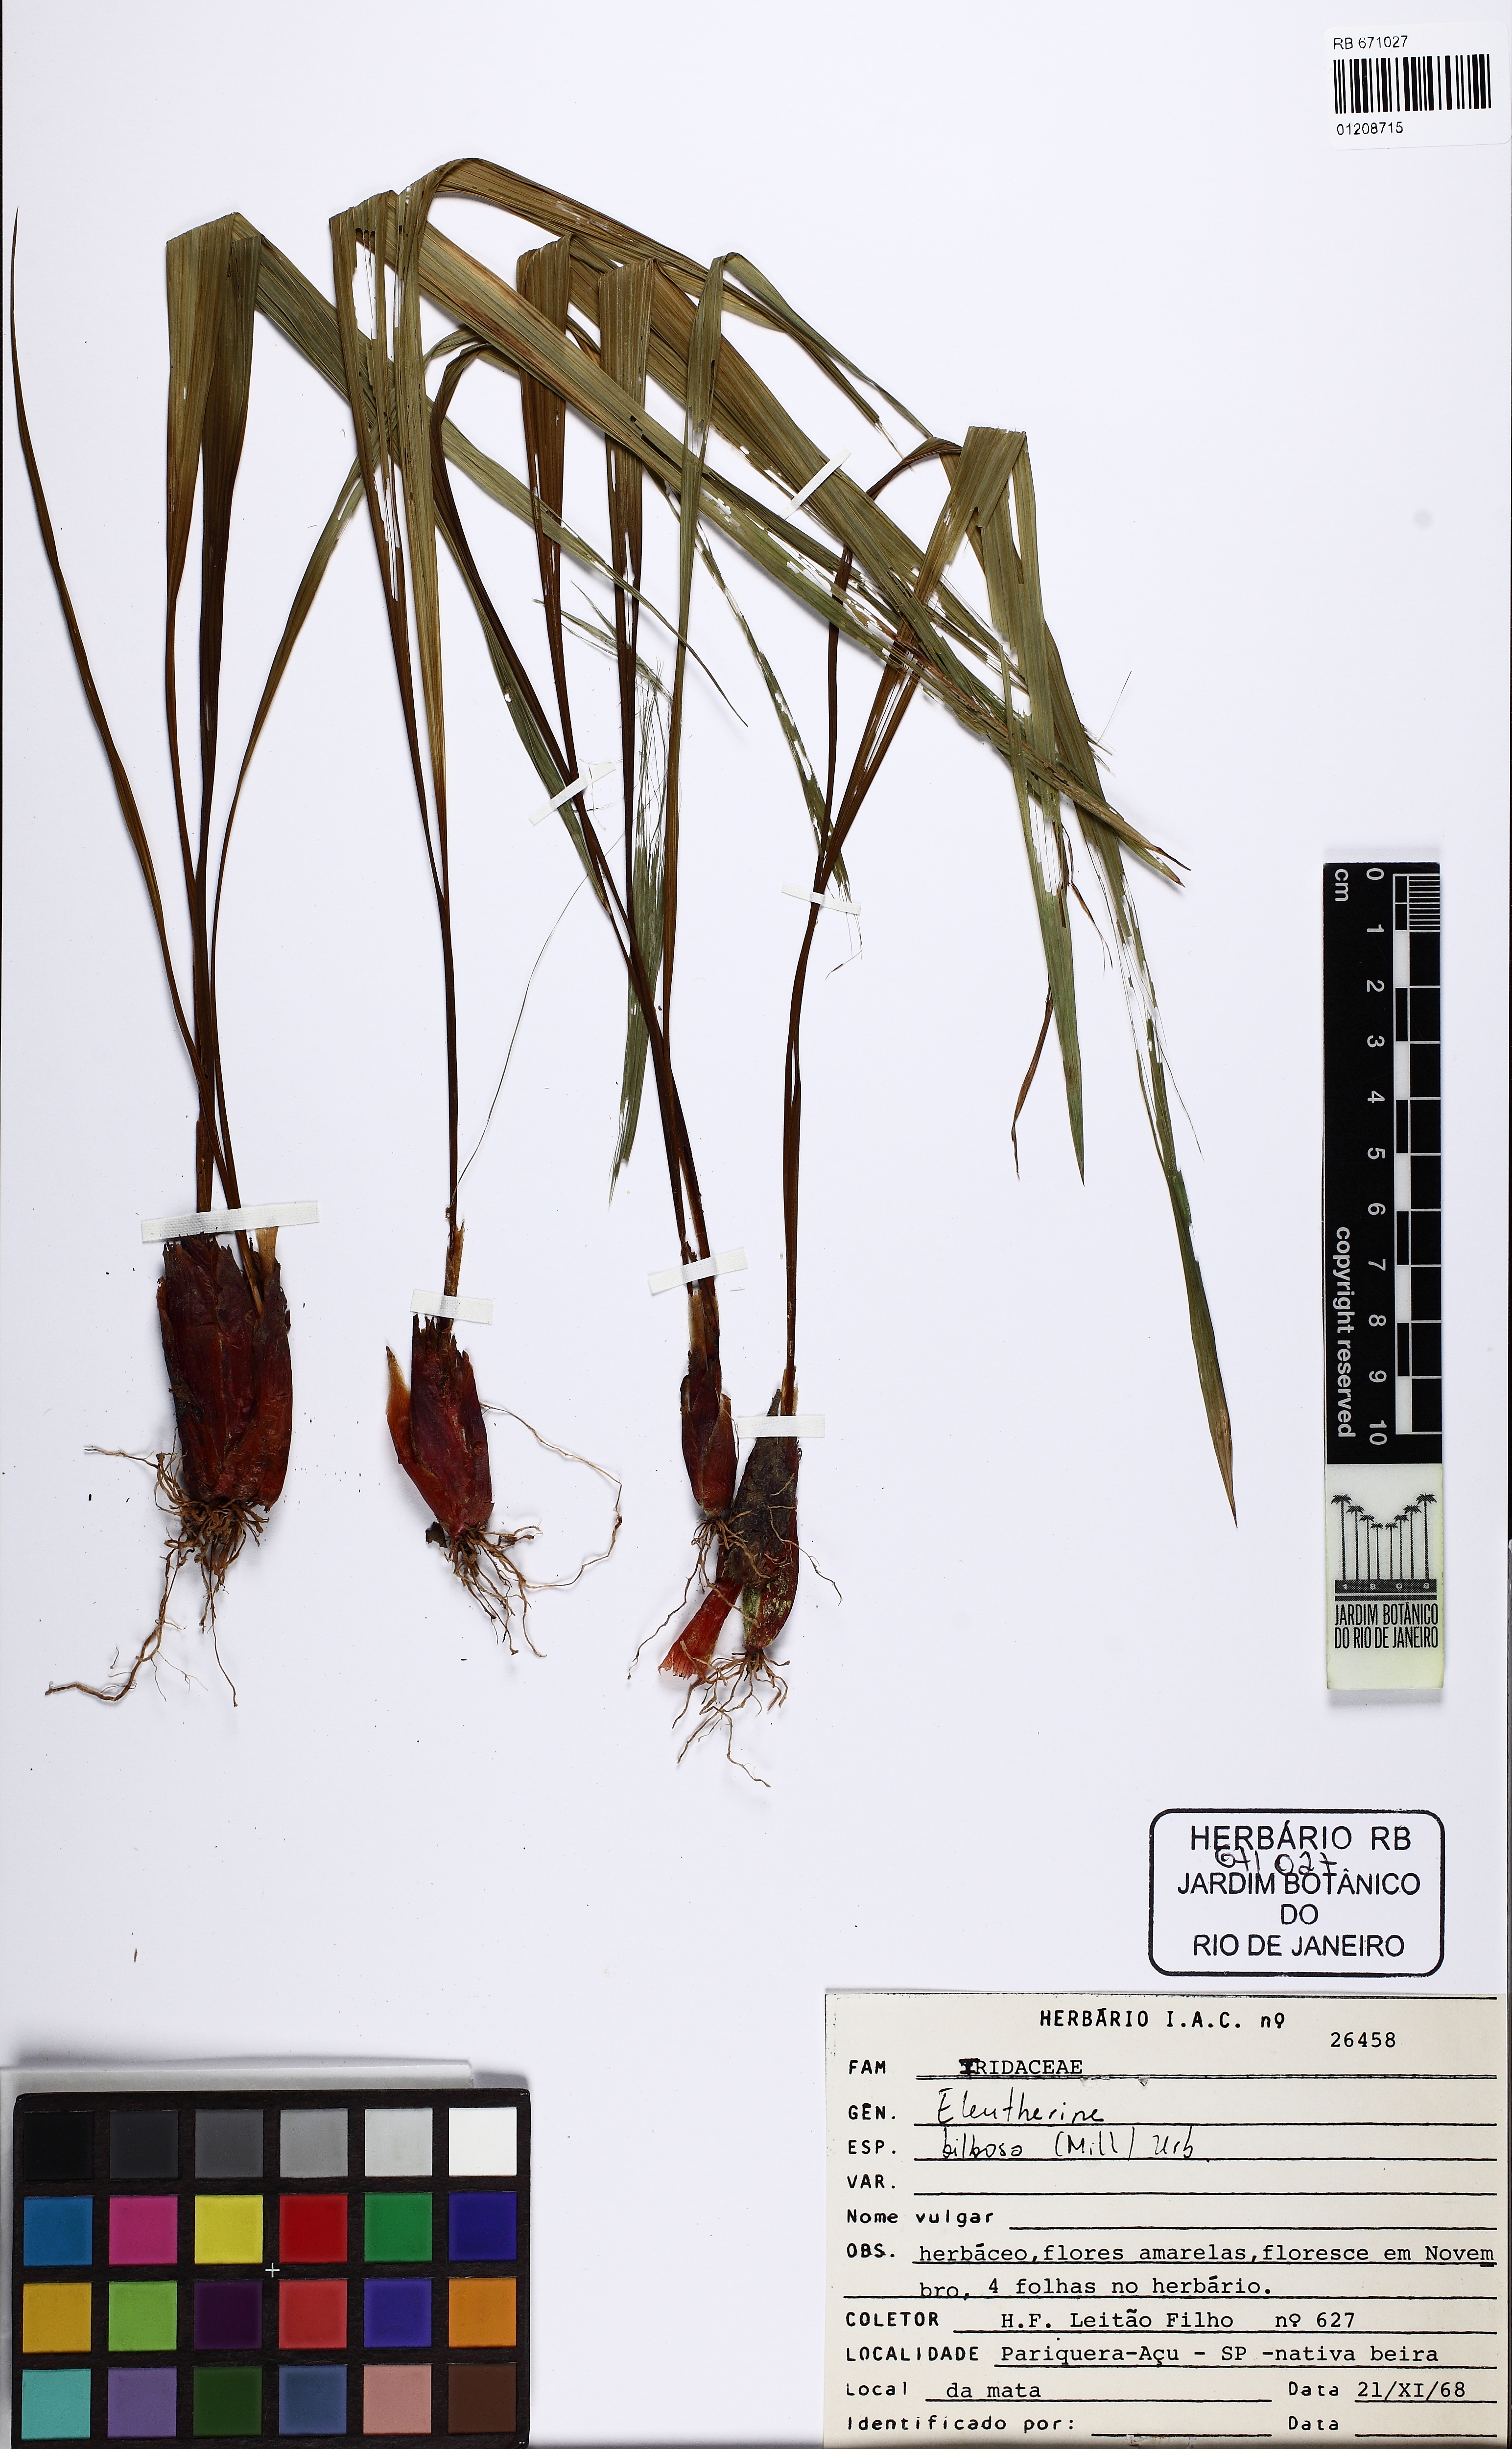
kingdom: Plantae
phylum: Tracheophyta
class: Liliopsida
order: Asparagales
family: Iridaceae
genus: Eleutherine
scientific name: Eleutherine bulbosa
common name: Lagrimas de la virgen
